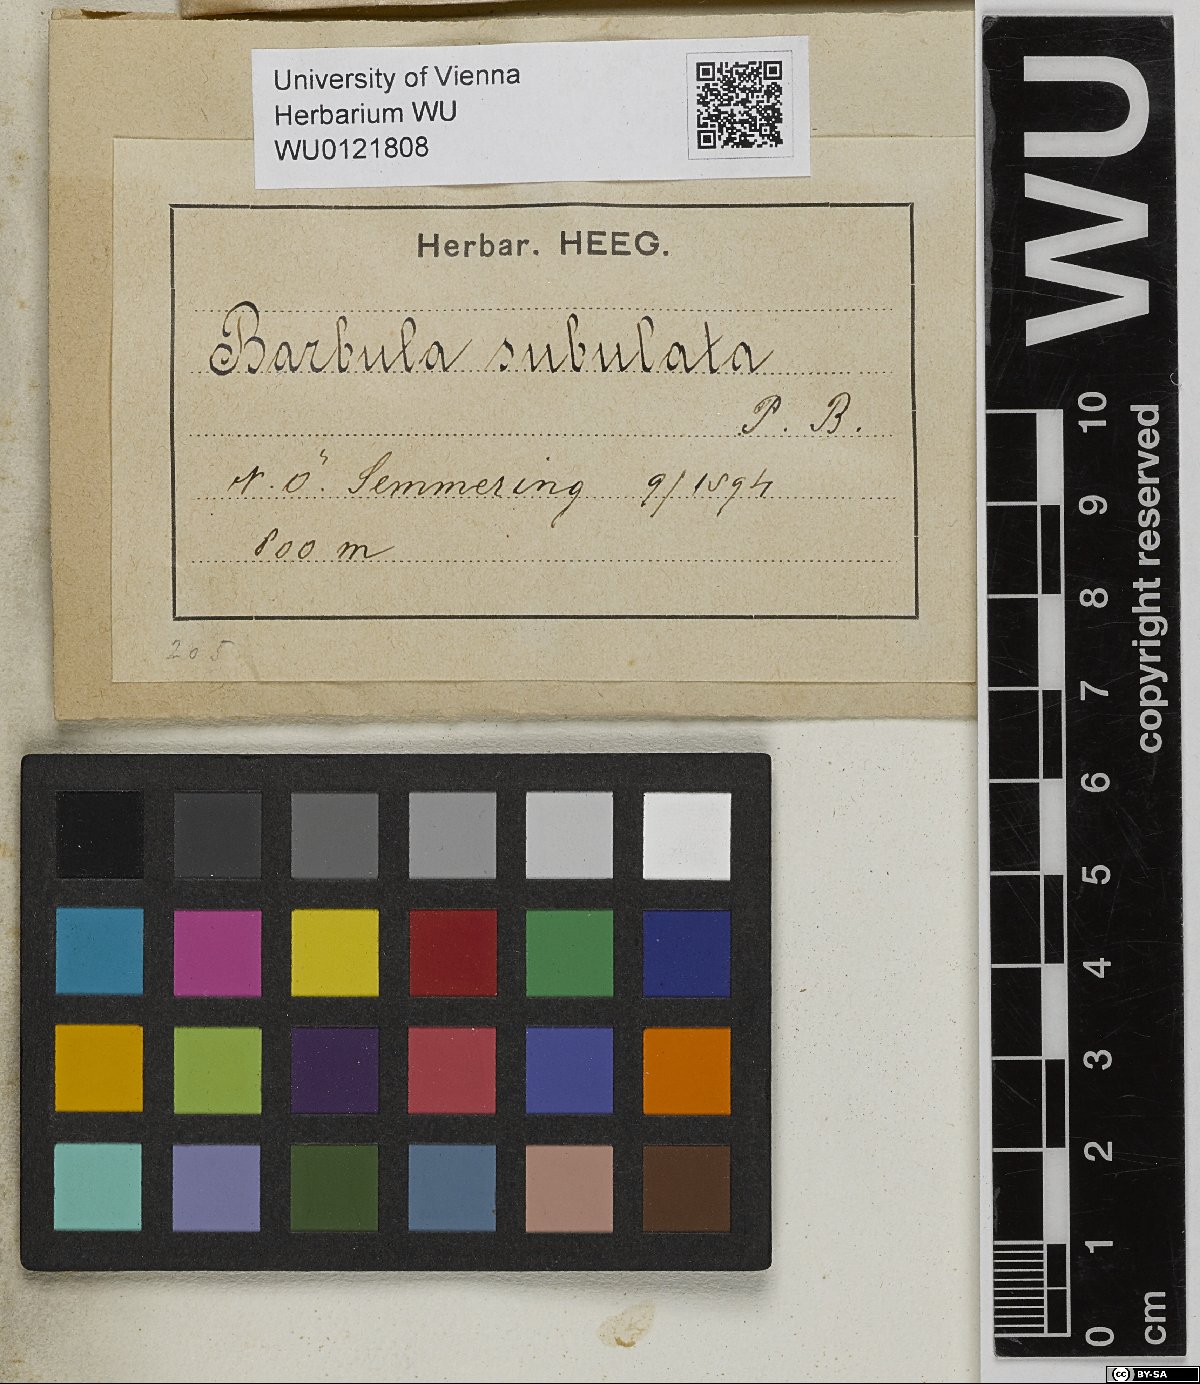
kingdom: Plantae
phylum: Bryophyta
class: Bryopsida
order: Pottiales
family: Pottiaceae
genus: Tortula
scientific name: Tortula subulata
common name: Upright screw-moss
